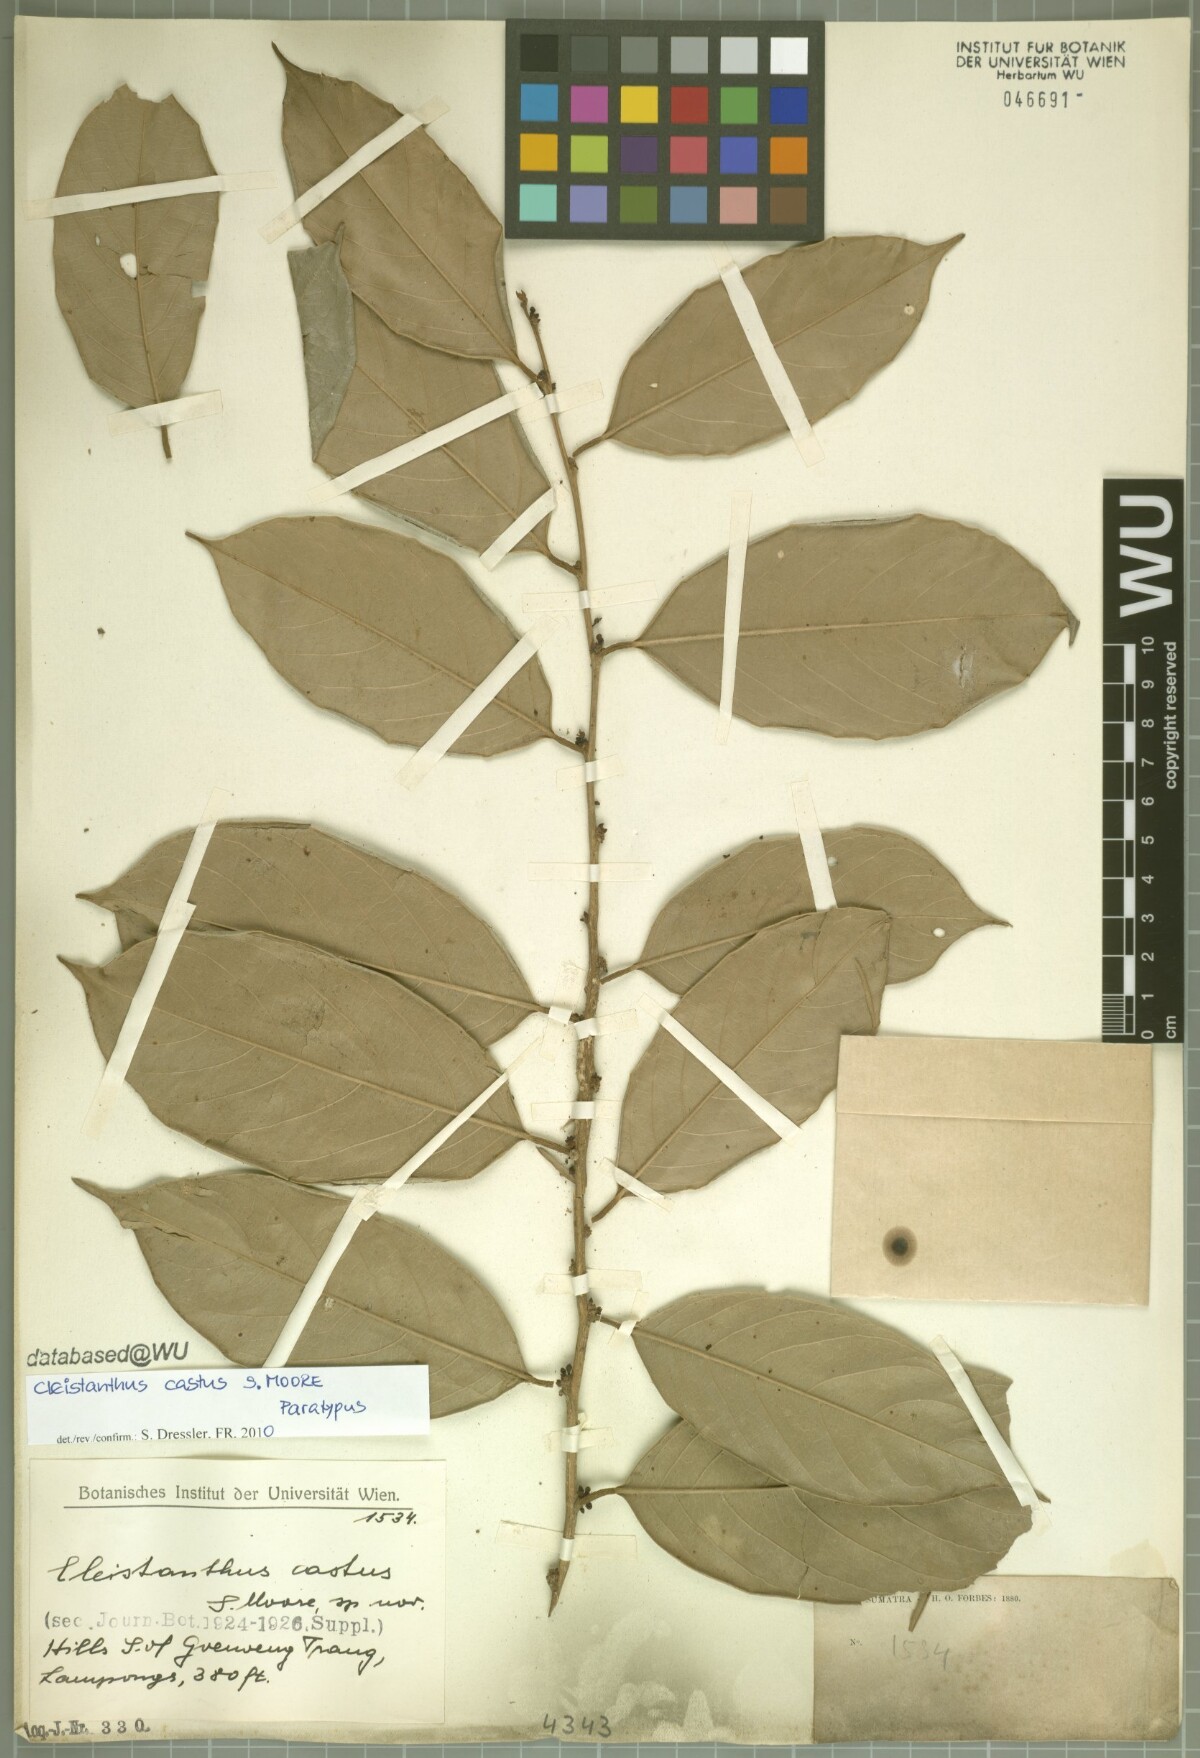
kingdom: Plantae
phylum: Tracheophyta
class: Magnoliopsida
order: Malpighiales
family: Phyllanthaceae
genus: Cleistanthus
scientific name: Cleistanthus oblongifolius
